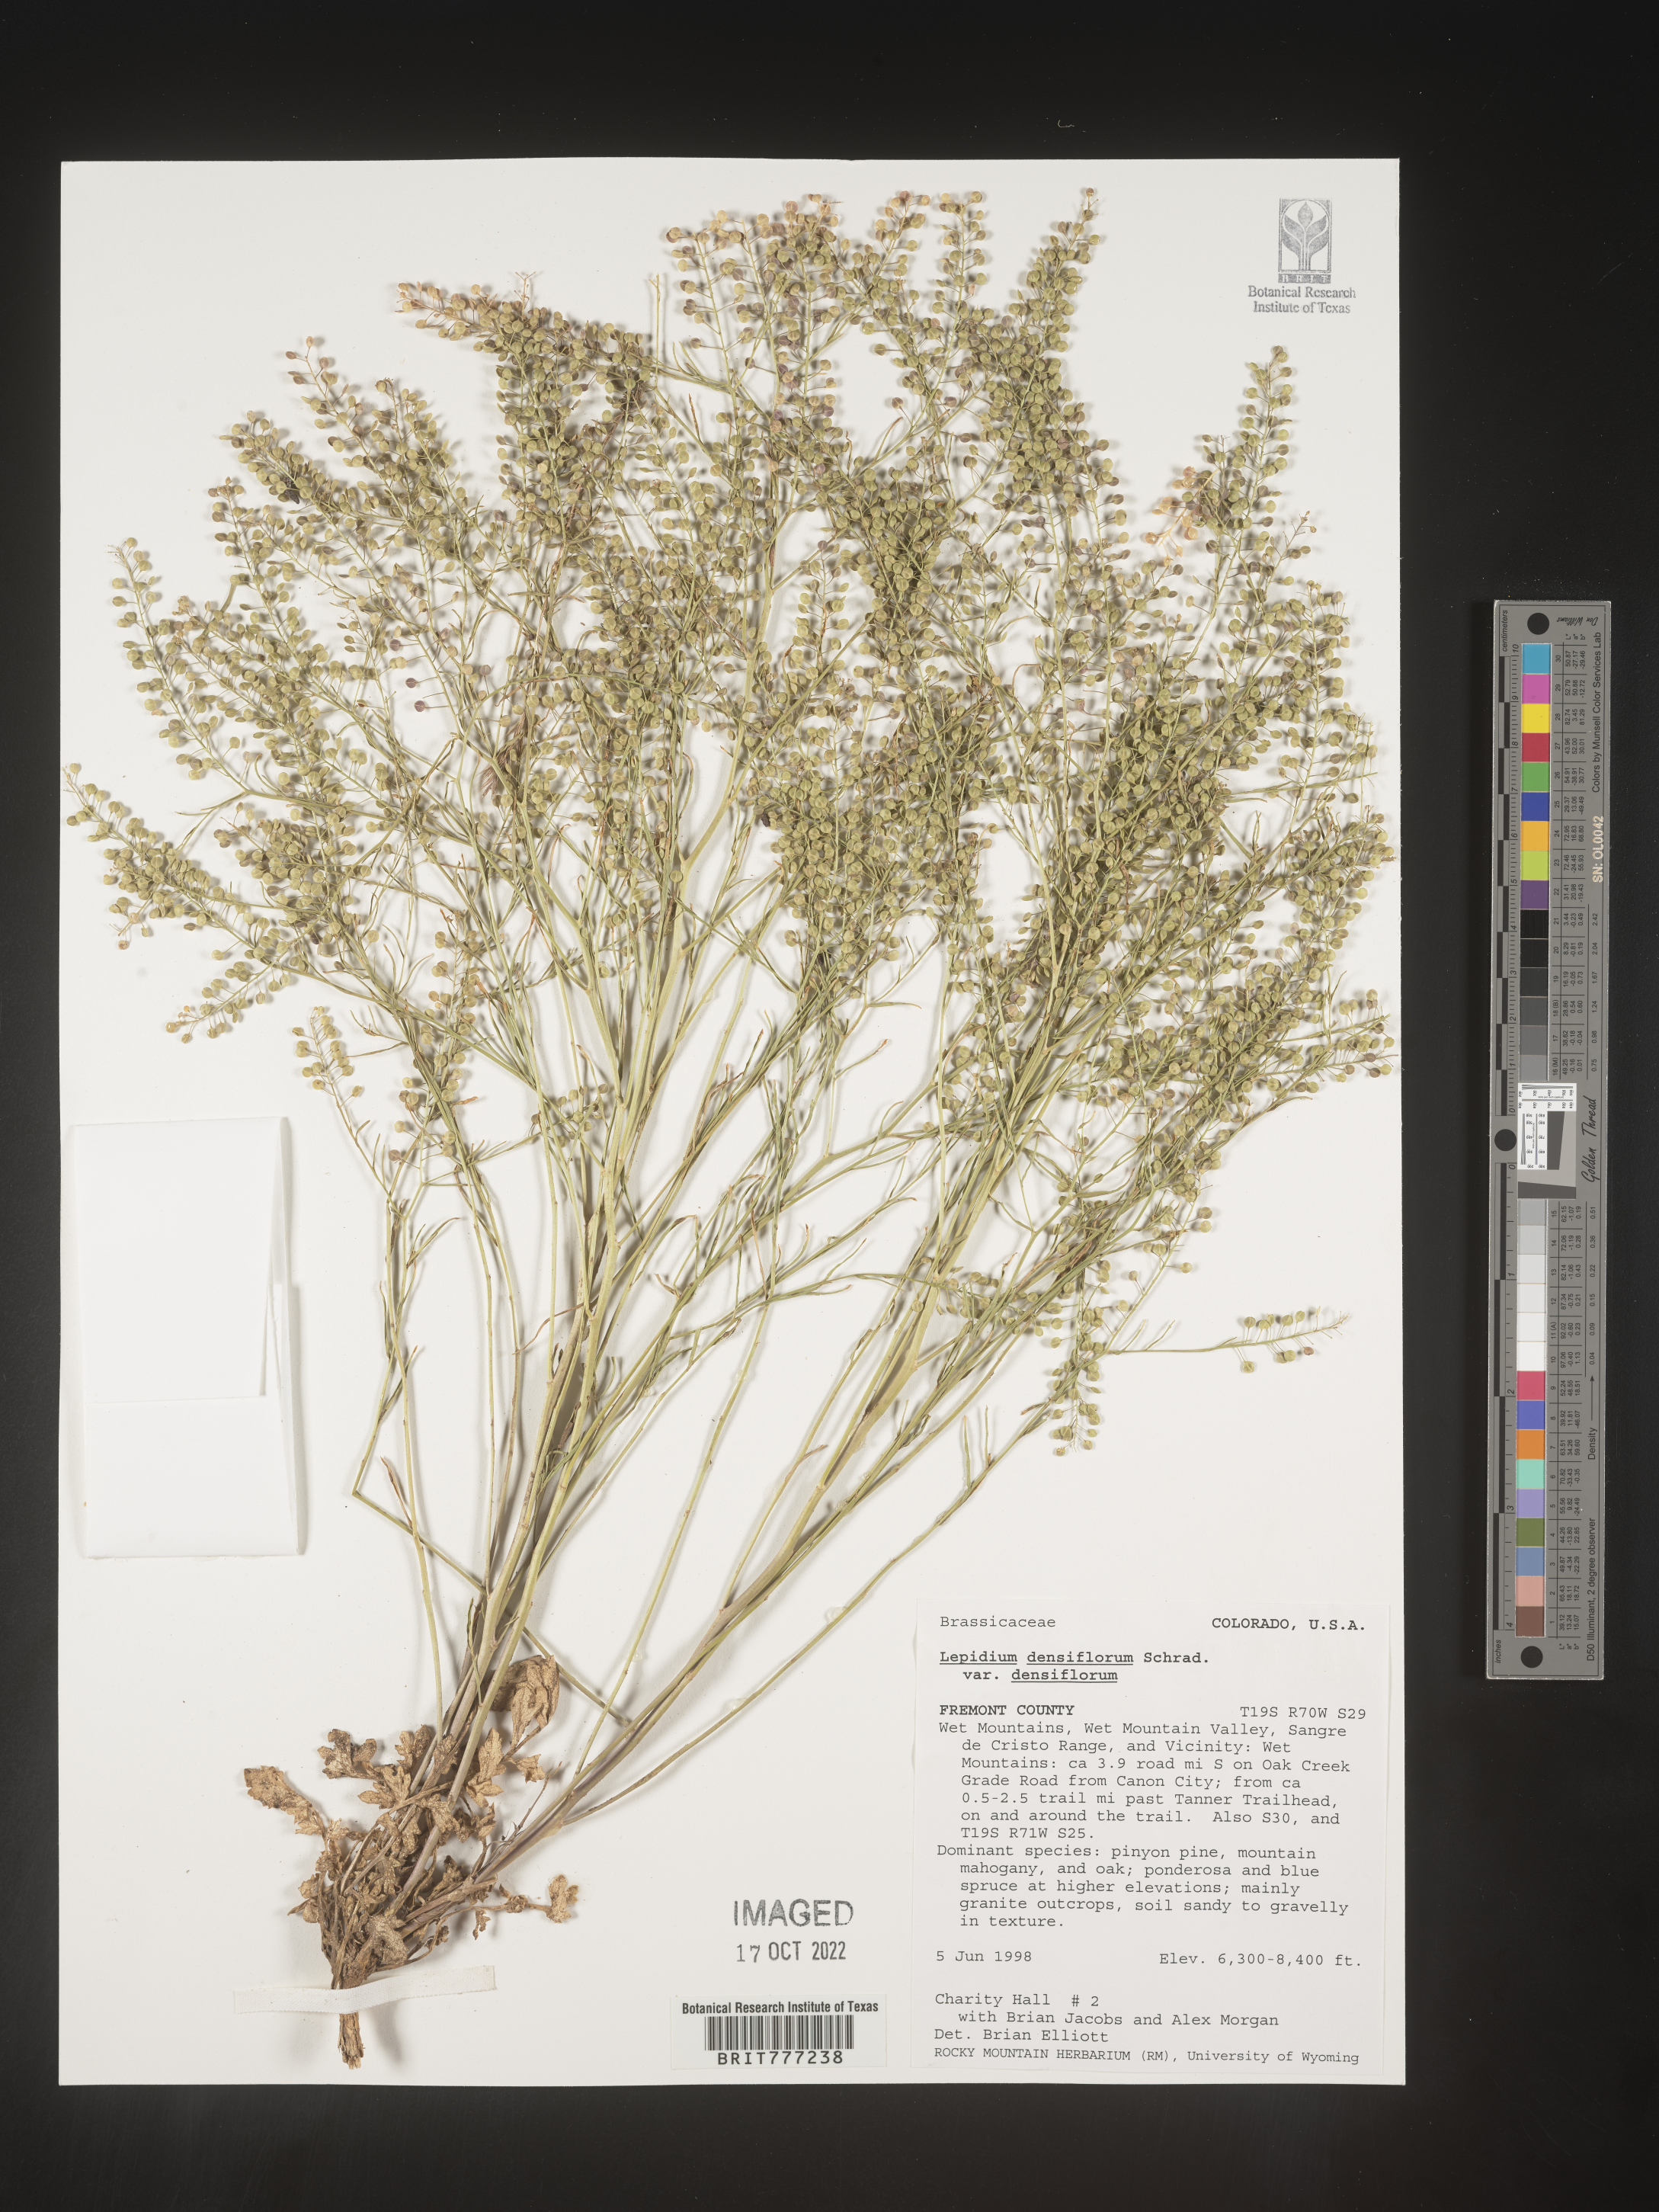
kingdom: Plantae
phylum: Tracheophyta
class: Magnoliopsida
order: Brassicales
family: Brassicaceae
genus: Lepidium
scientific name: Lepidium densiflorum
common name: Miner's pepperwort
